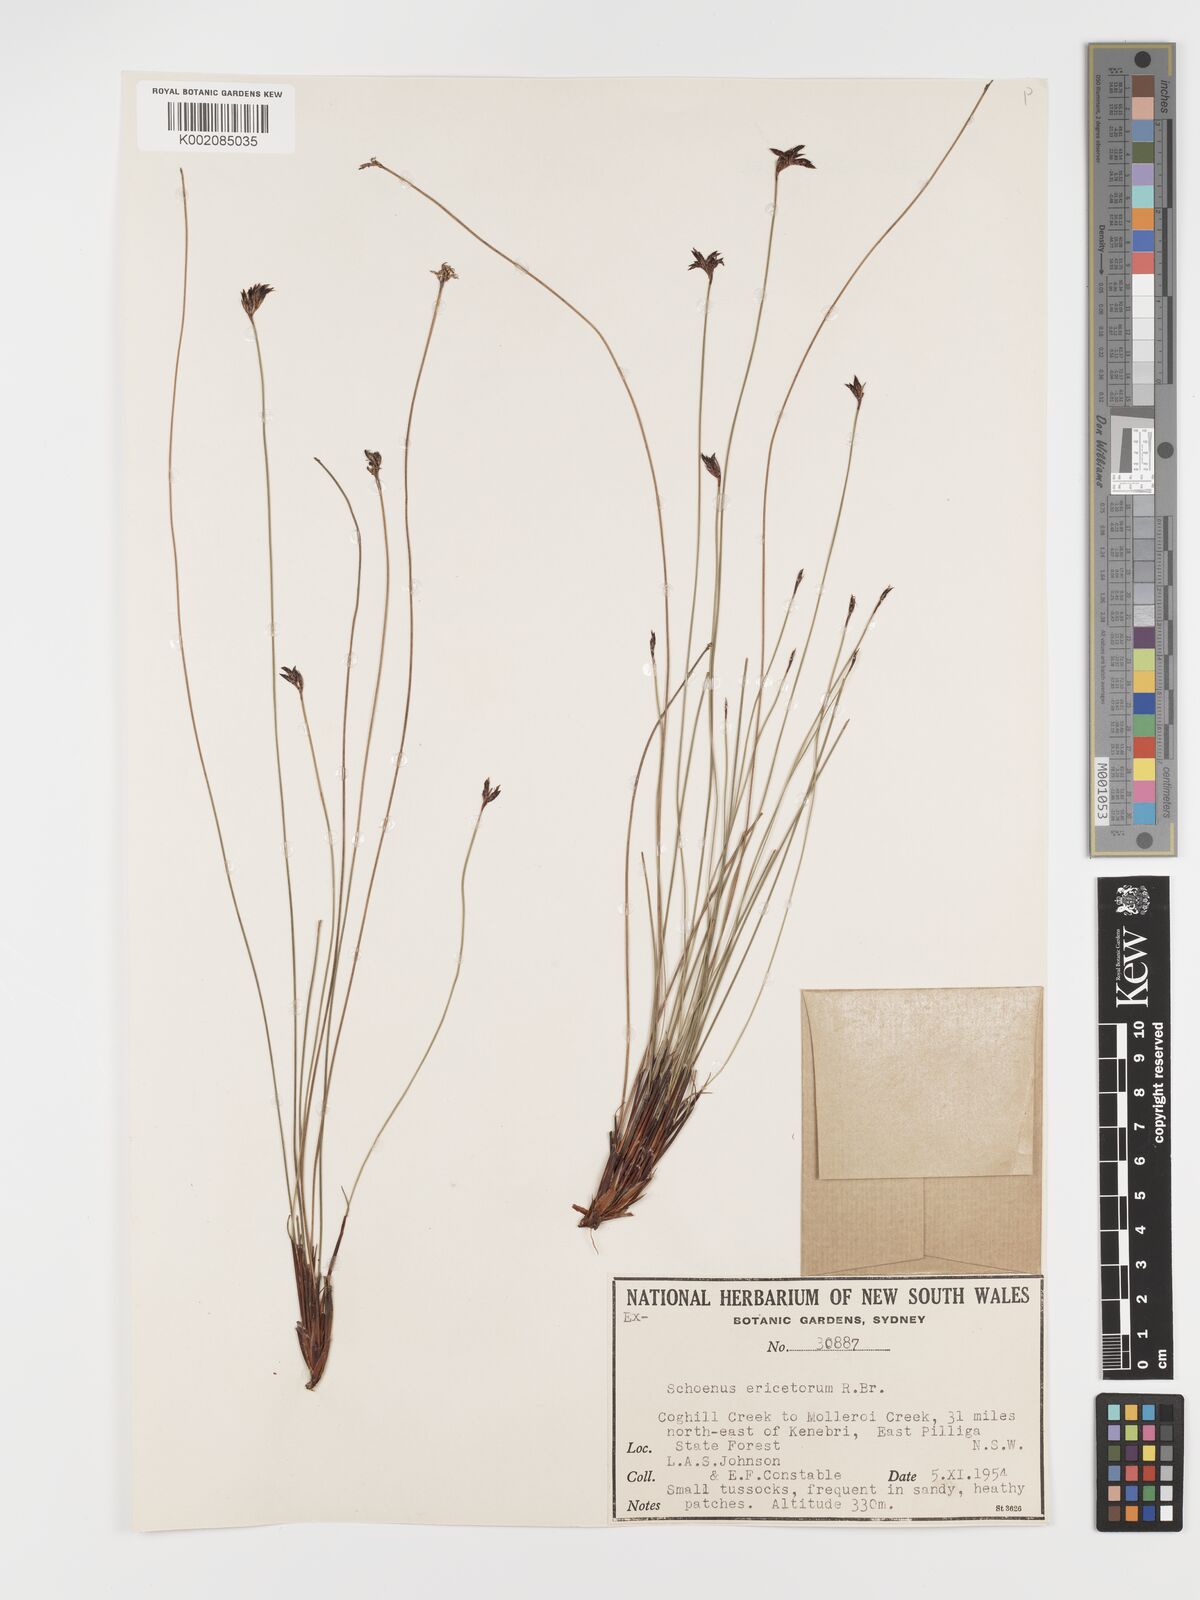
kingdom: Plantae
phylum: Tracheophyta
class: Liliopsida
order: Poales
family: Cyperaceae
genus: Schoenus
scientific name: Schoenus ericetorum
